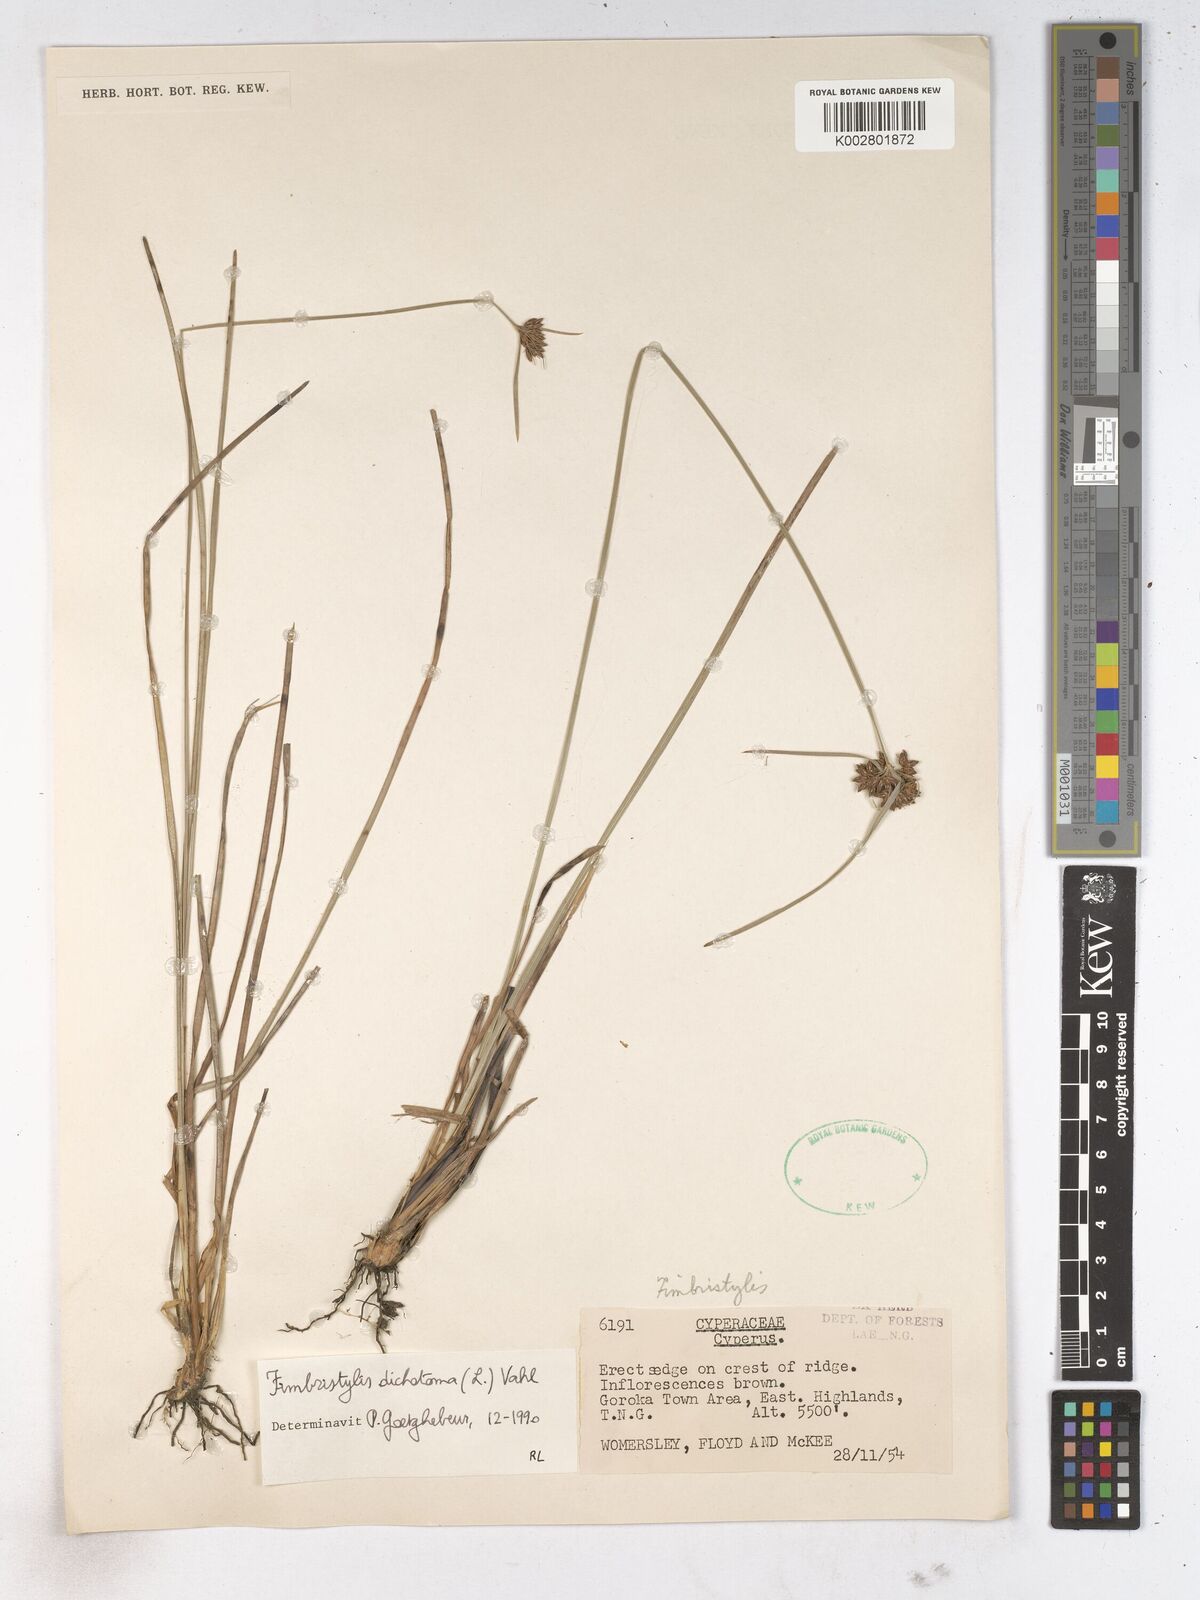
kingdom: Plantae
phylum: Tracheophyta
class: Liliopsida
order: Poales
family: Cyperaceae
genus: Fimbristylis
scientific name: Fimbristylis dichotoma
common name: Forked fimbry
